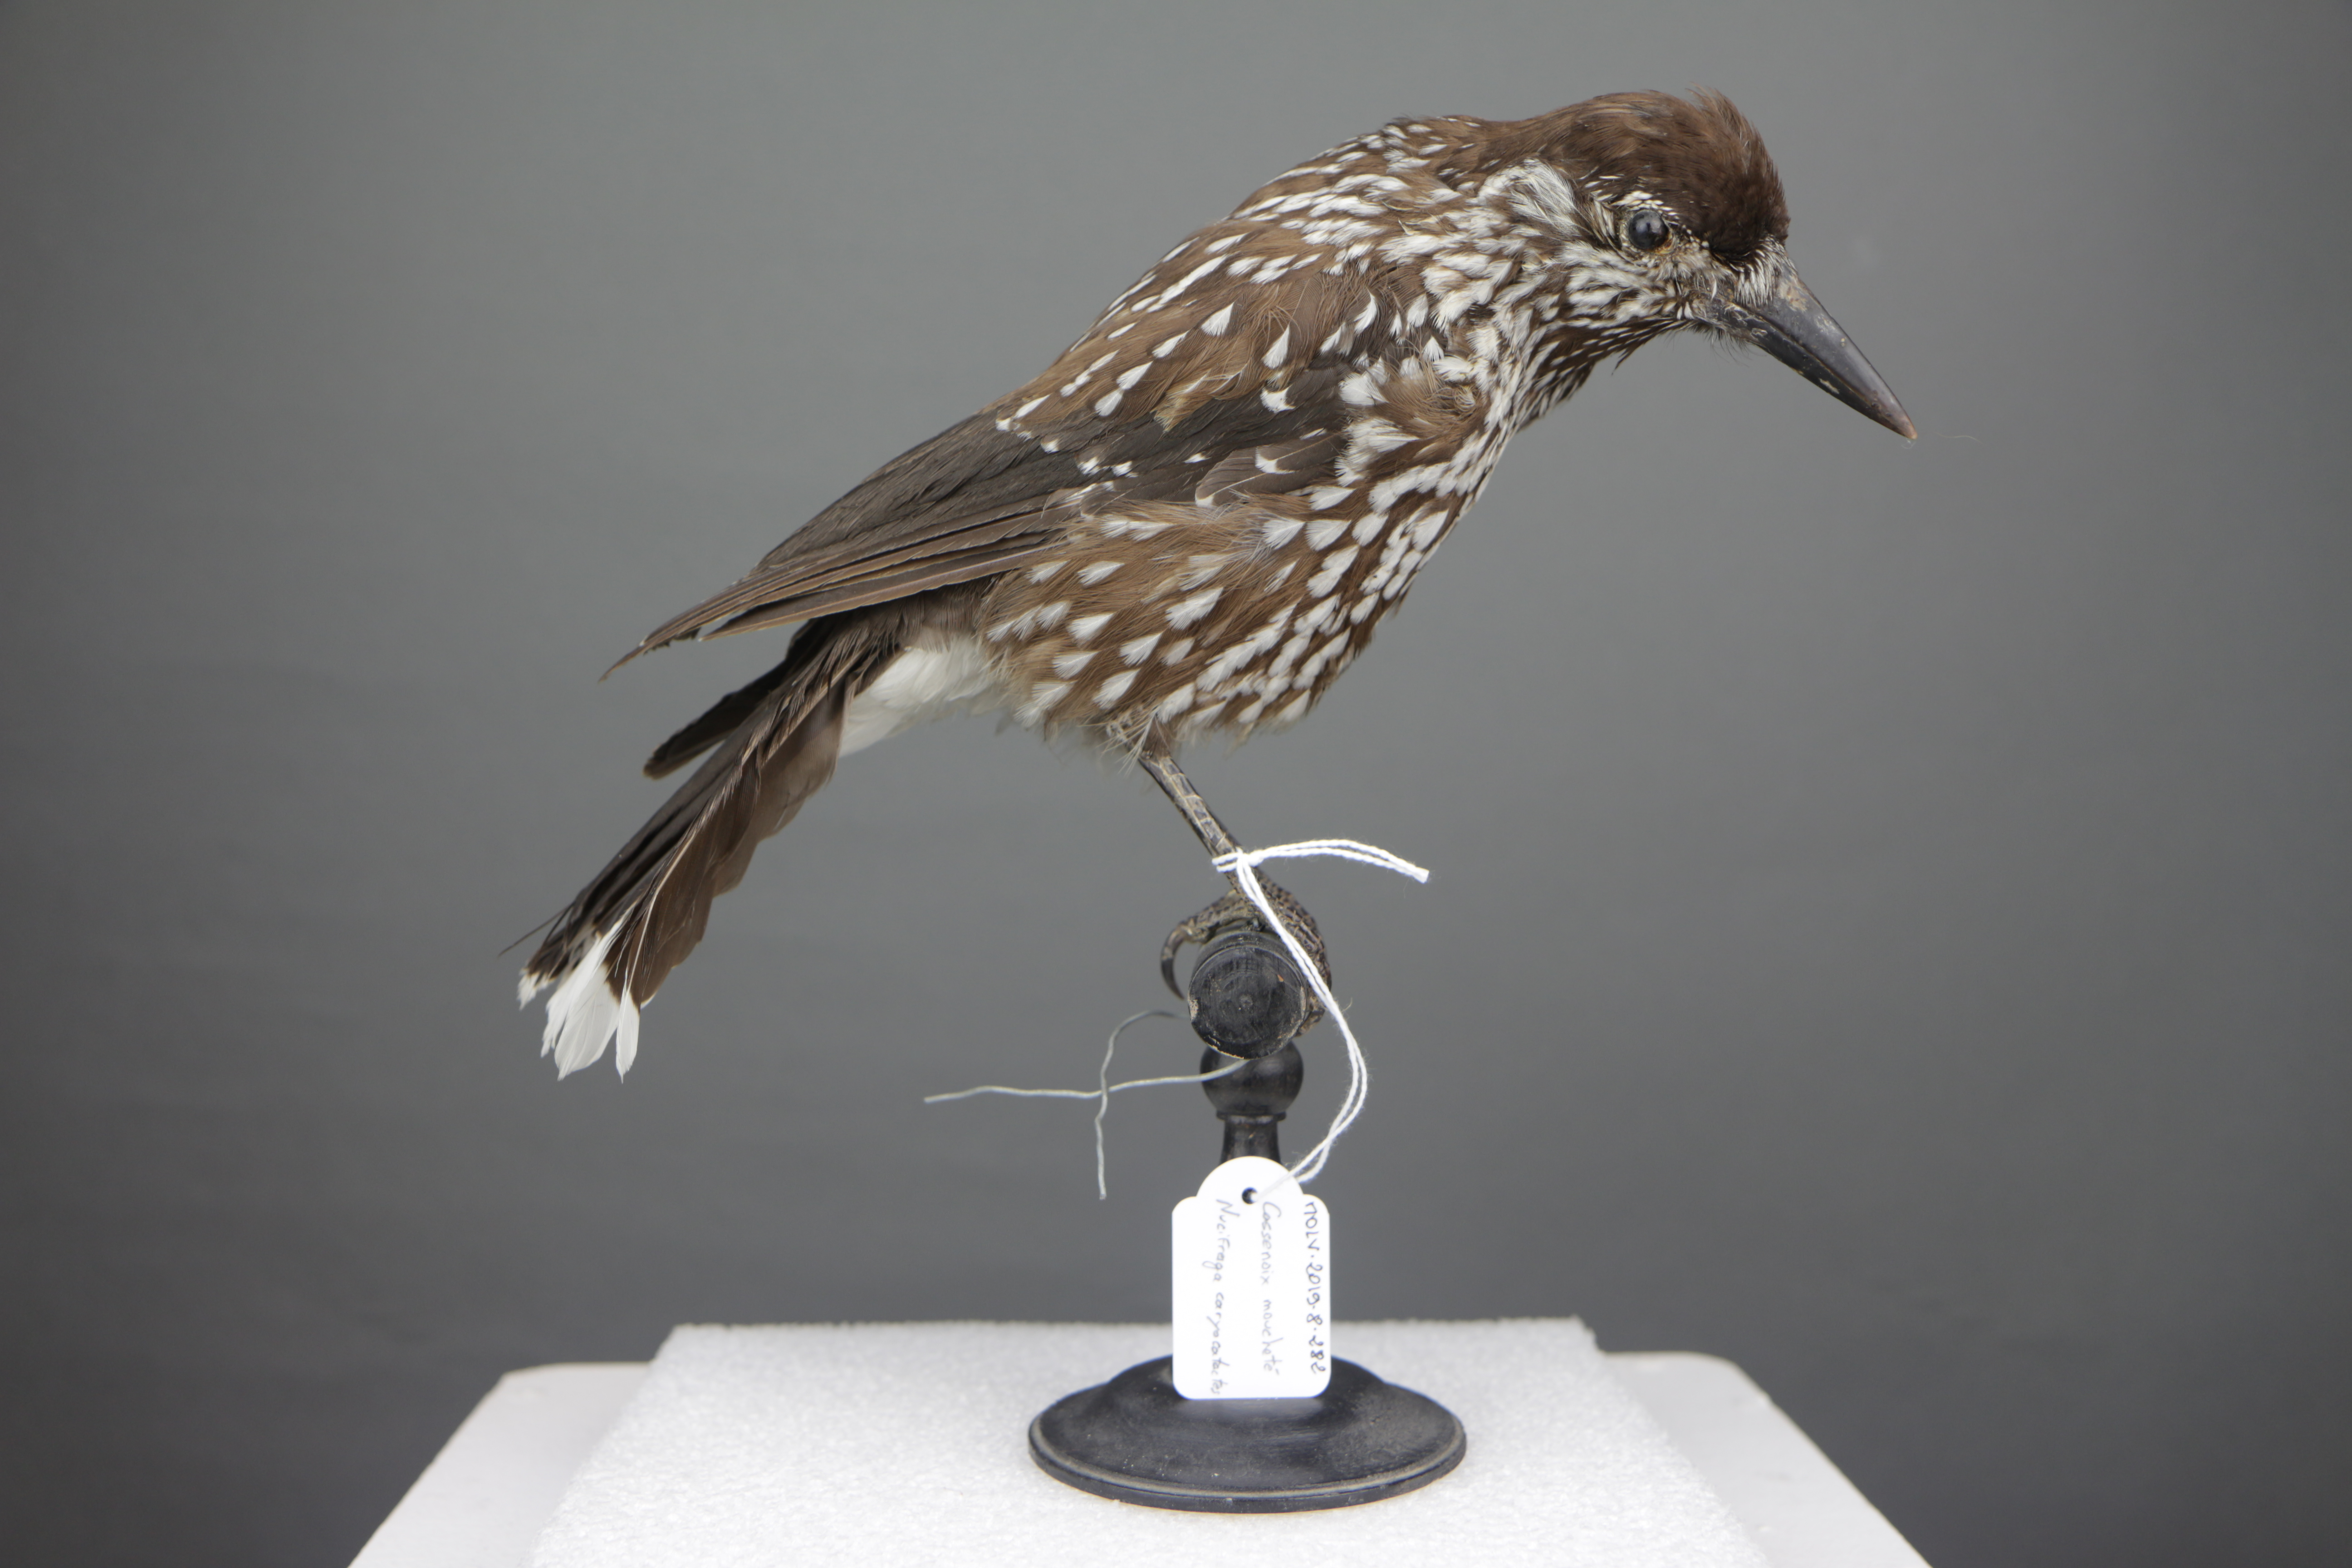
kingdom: Animalia
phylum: Chordata
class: Aves
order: Passeriformes
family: Corvidae
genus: Nucifraga
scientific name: Nucifraga caryocatactes
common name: Spotted nutcracker
